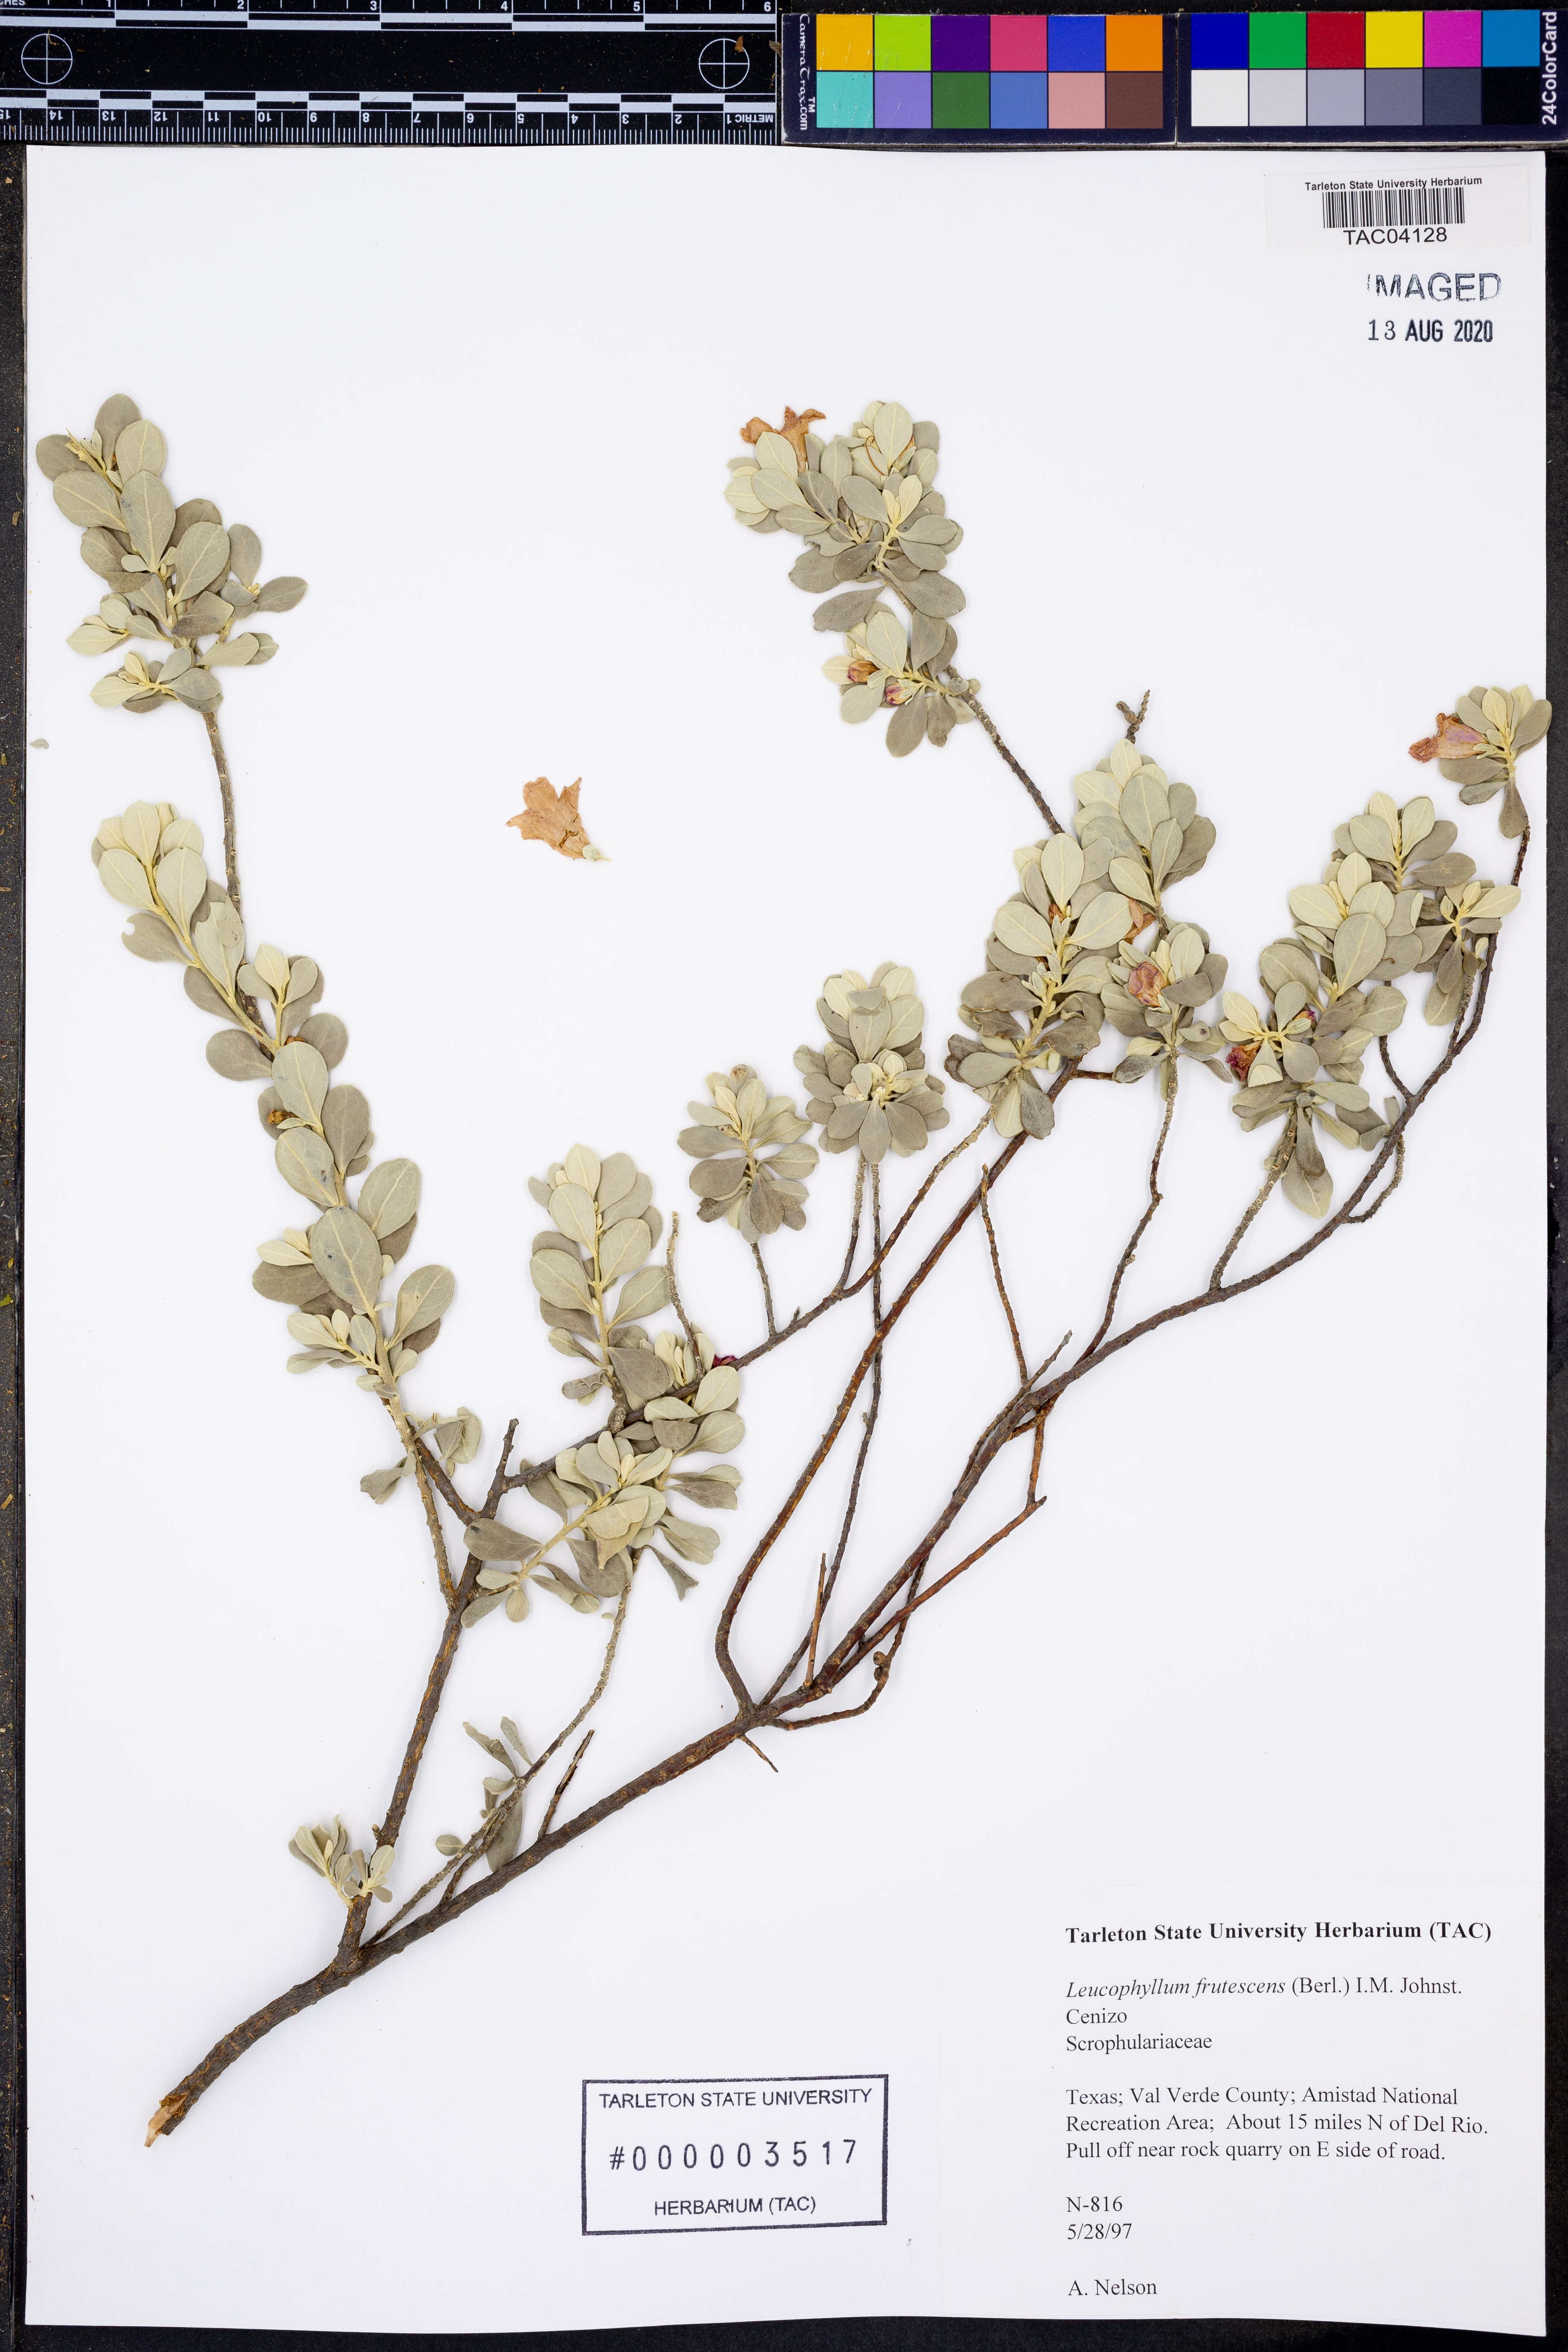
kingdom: Plantae
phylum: Tracheophyta
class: Magnoliopsida
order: Lamiales
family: Scrophulariaceae
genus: Leucophyllum
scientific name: Leucophyllum frutescens
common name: Texas silverleaf
